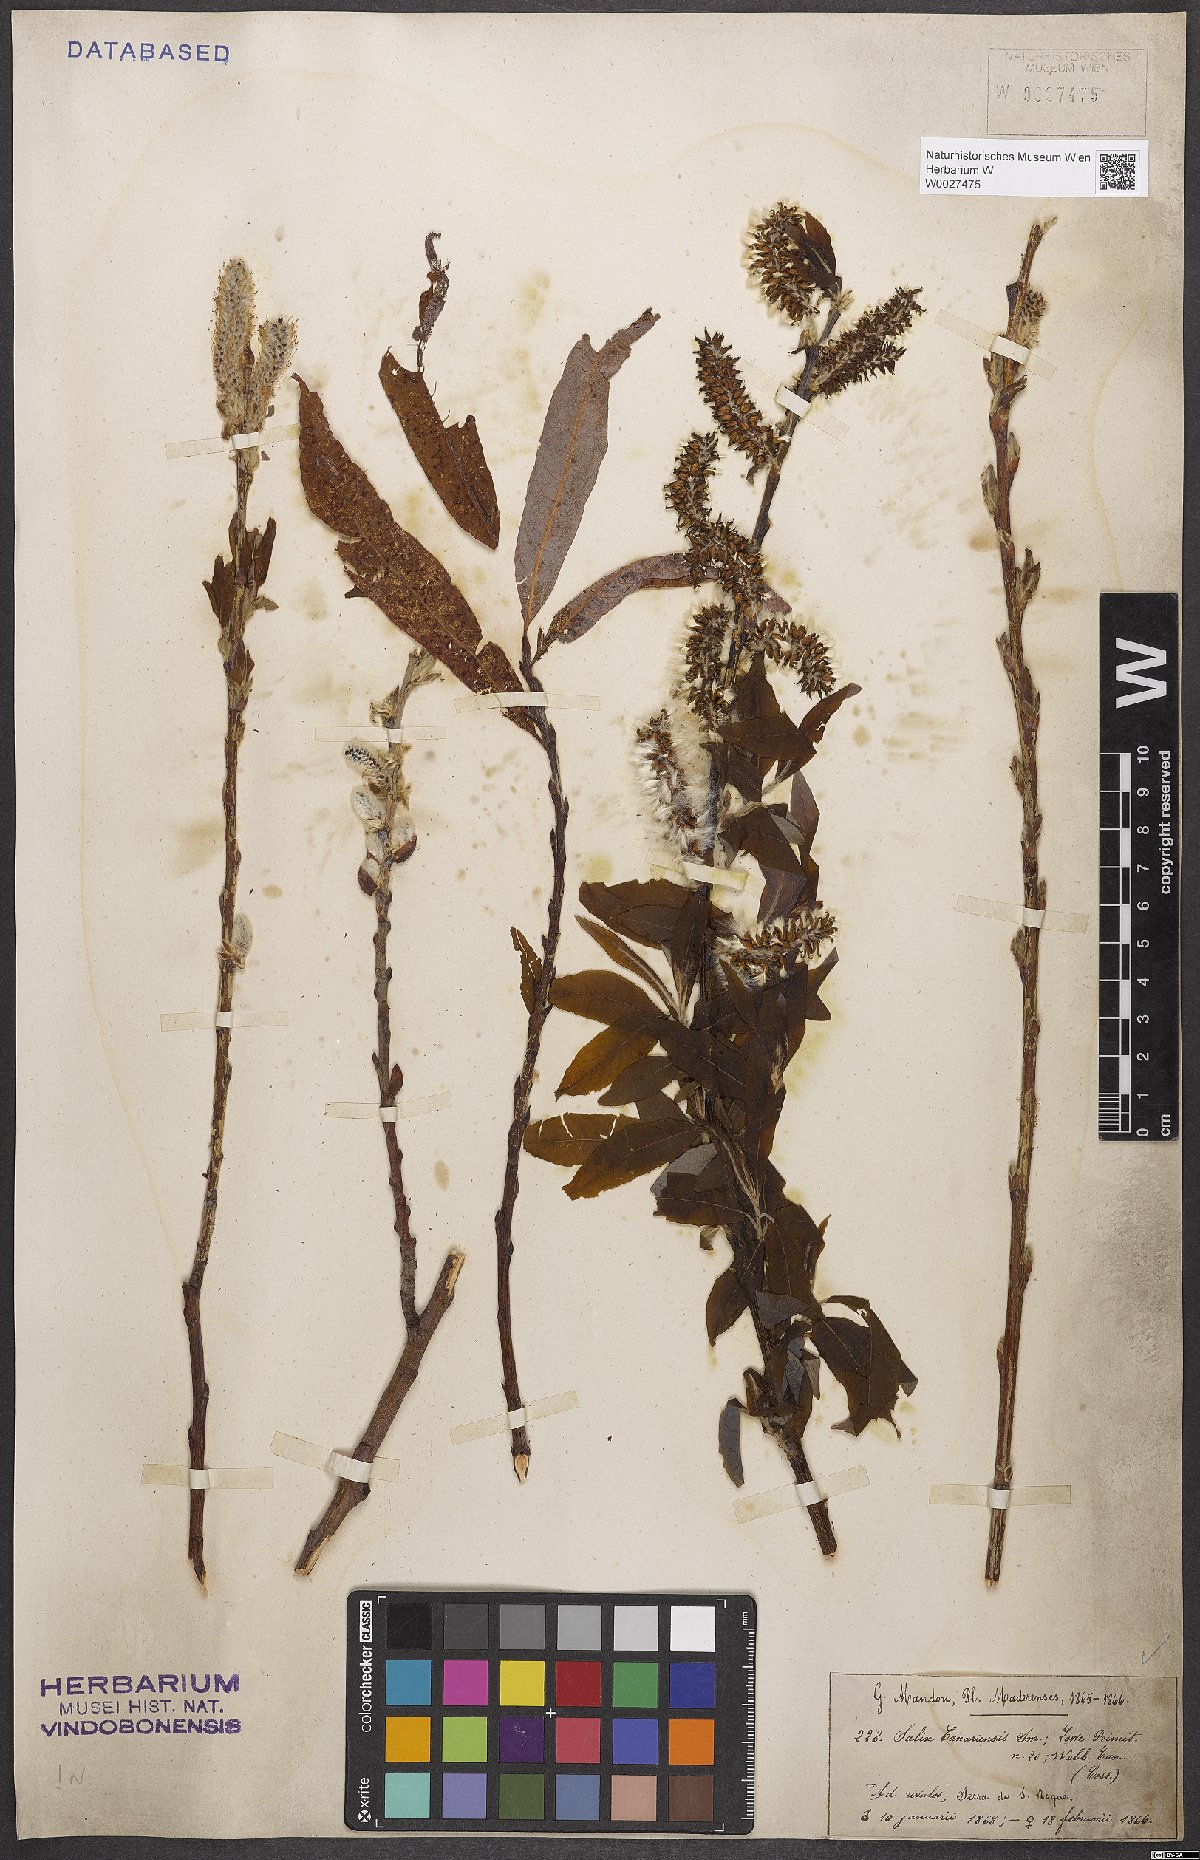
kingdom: Plantae
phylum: Tracheophyta
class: Magnoliopsida
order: Malpighiales
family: Salicaceae
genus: Salix
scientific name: Salix canariensis
